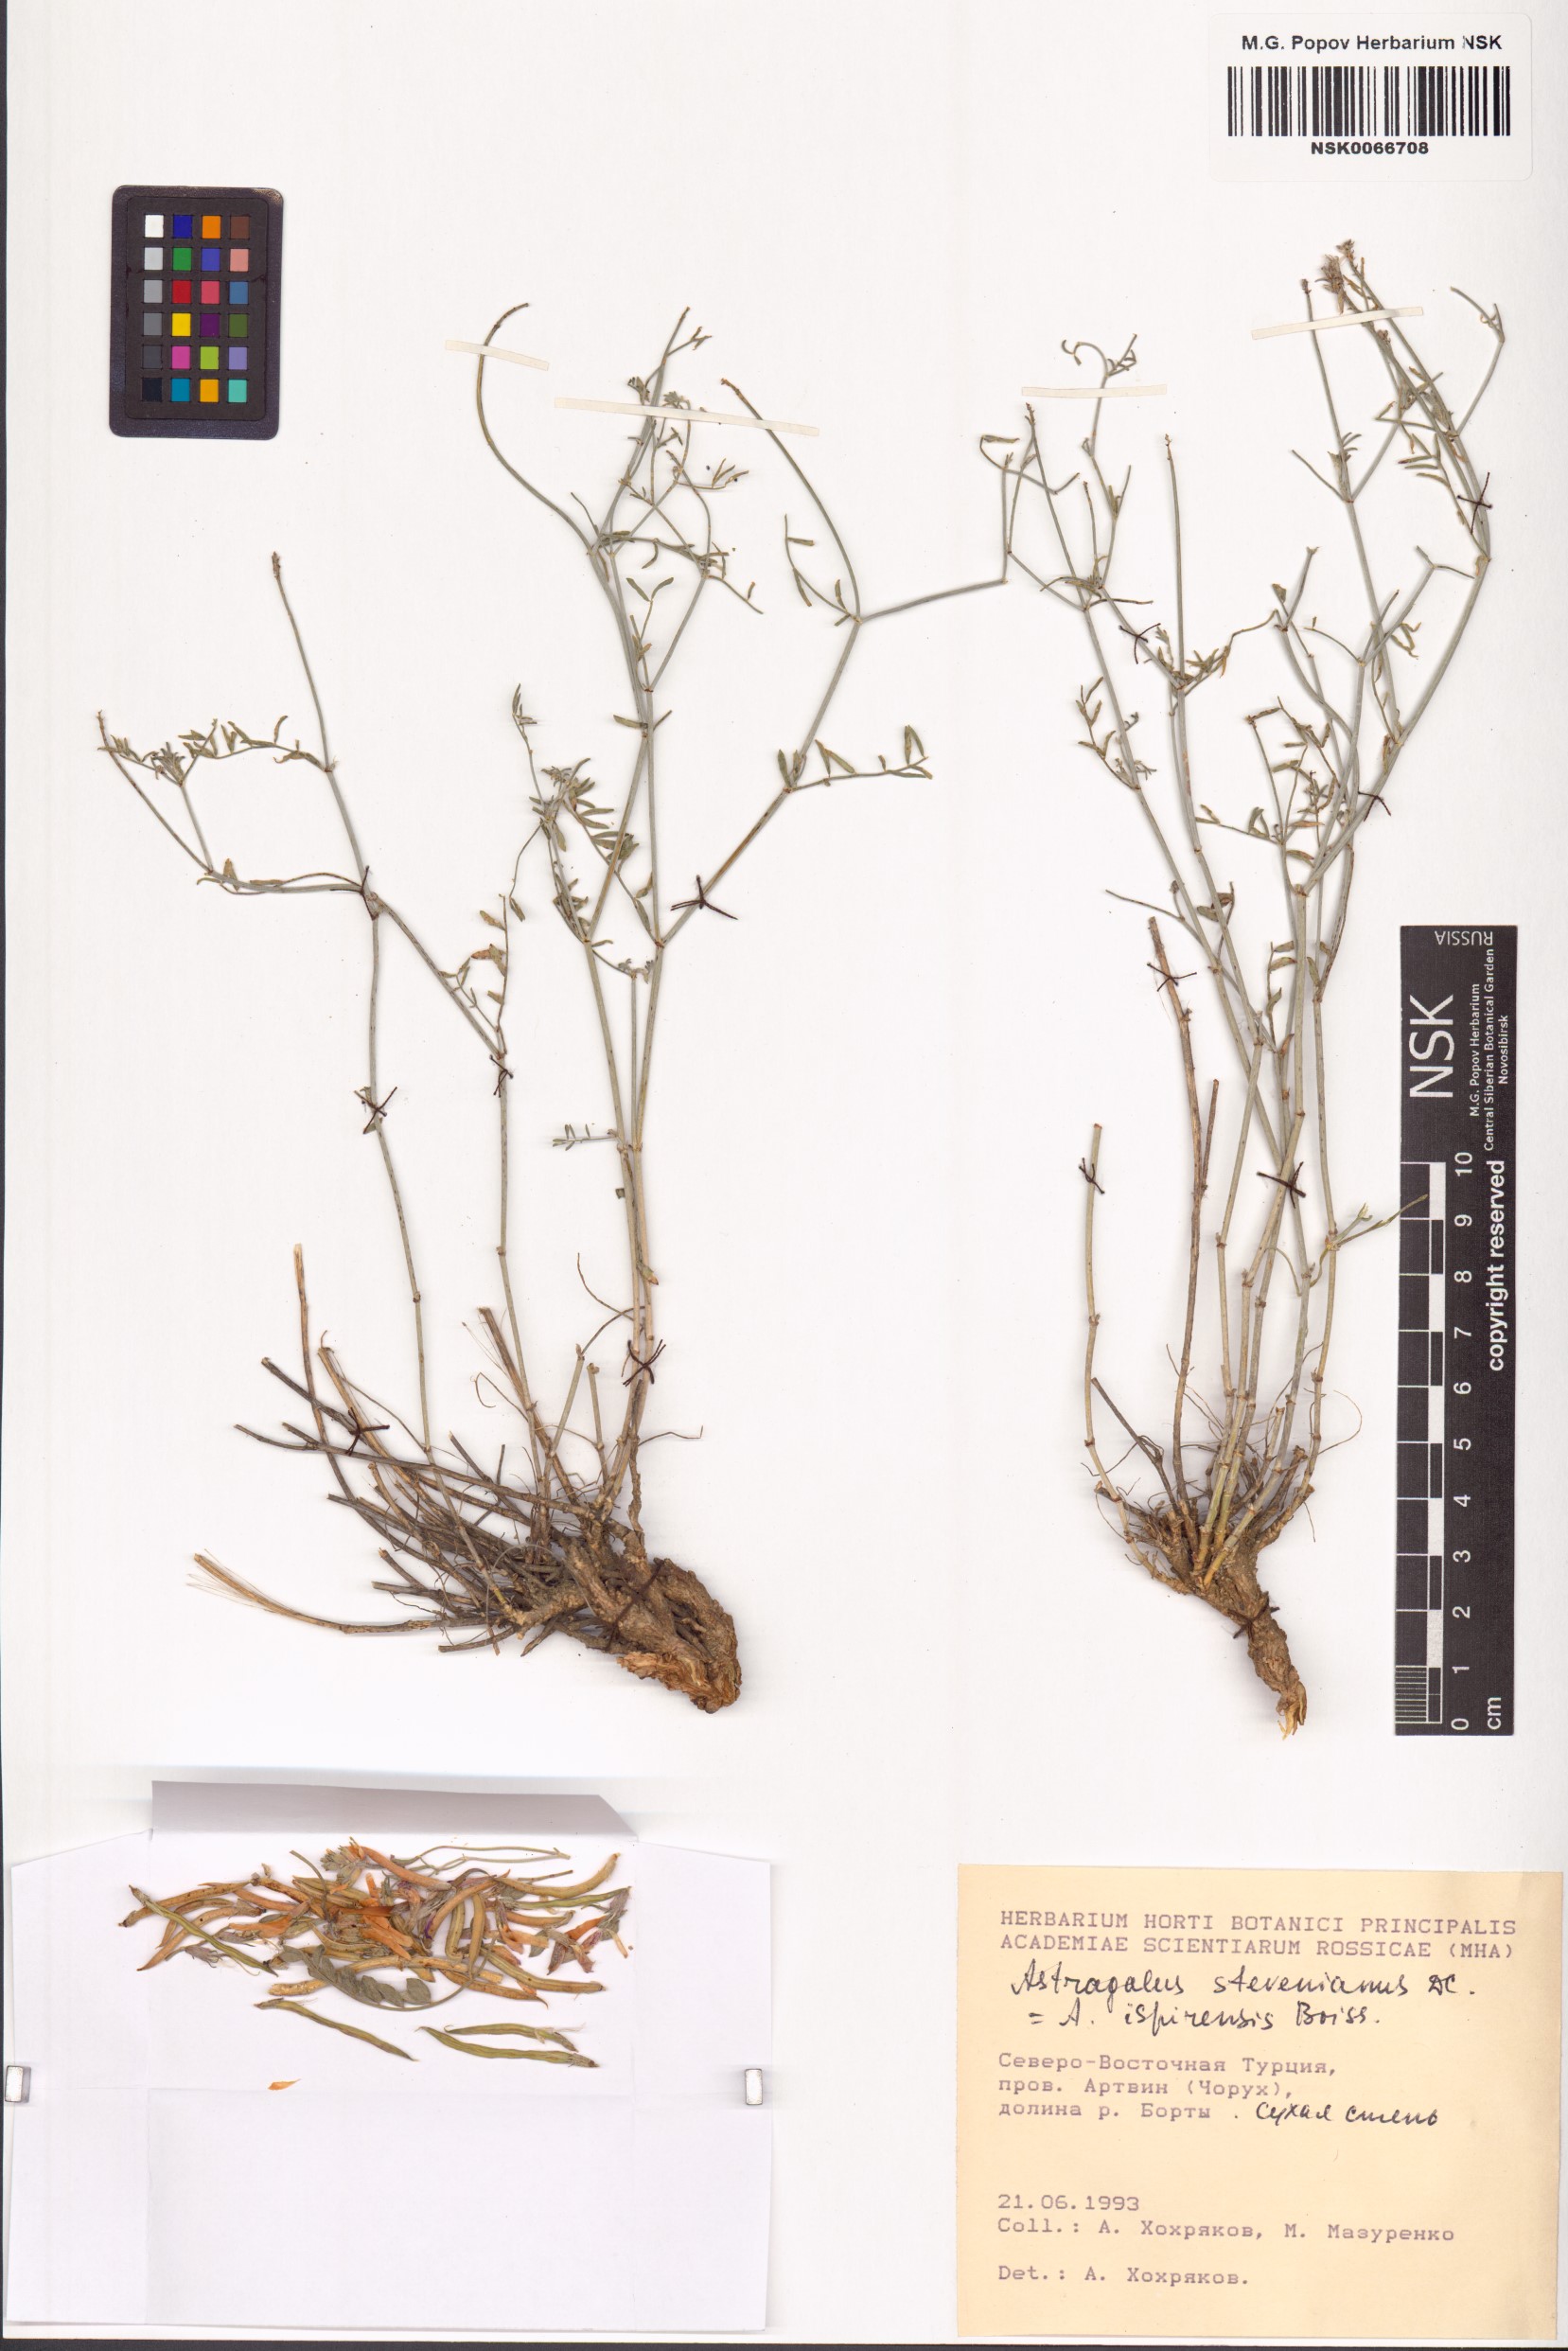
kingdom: Plantae
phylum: Tracheophyta
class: Magnoliopsida
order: Fabales
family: Fabaceae
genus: Astragalus
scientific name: Astragalus stevenianus
